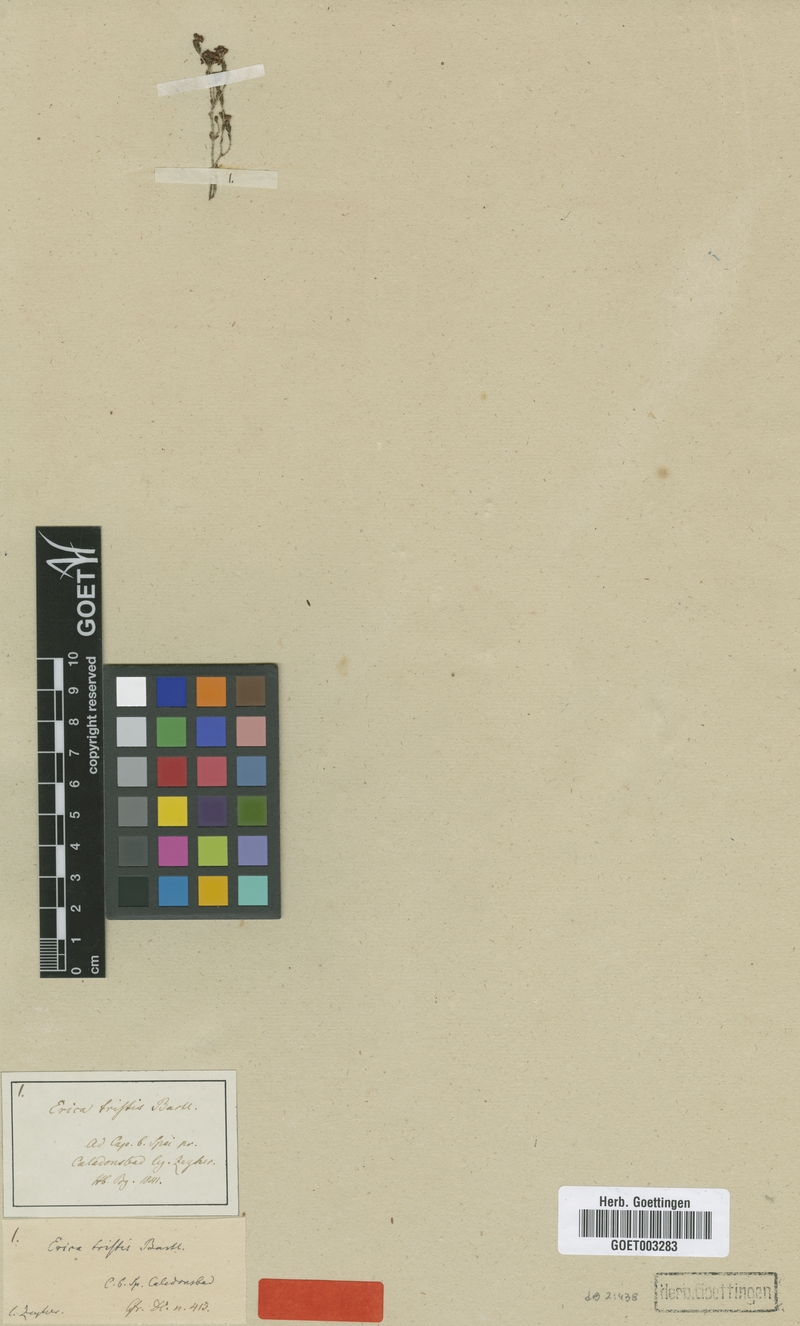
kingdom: Plantae
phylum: Tracheophyta
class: Magnoliopsida
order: Ericales
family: Ericaceae
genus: Erica
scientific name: Erica tristis
